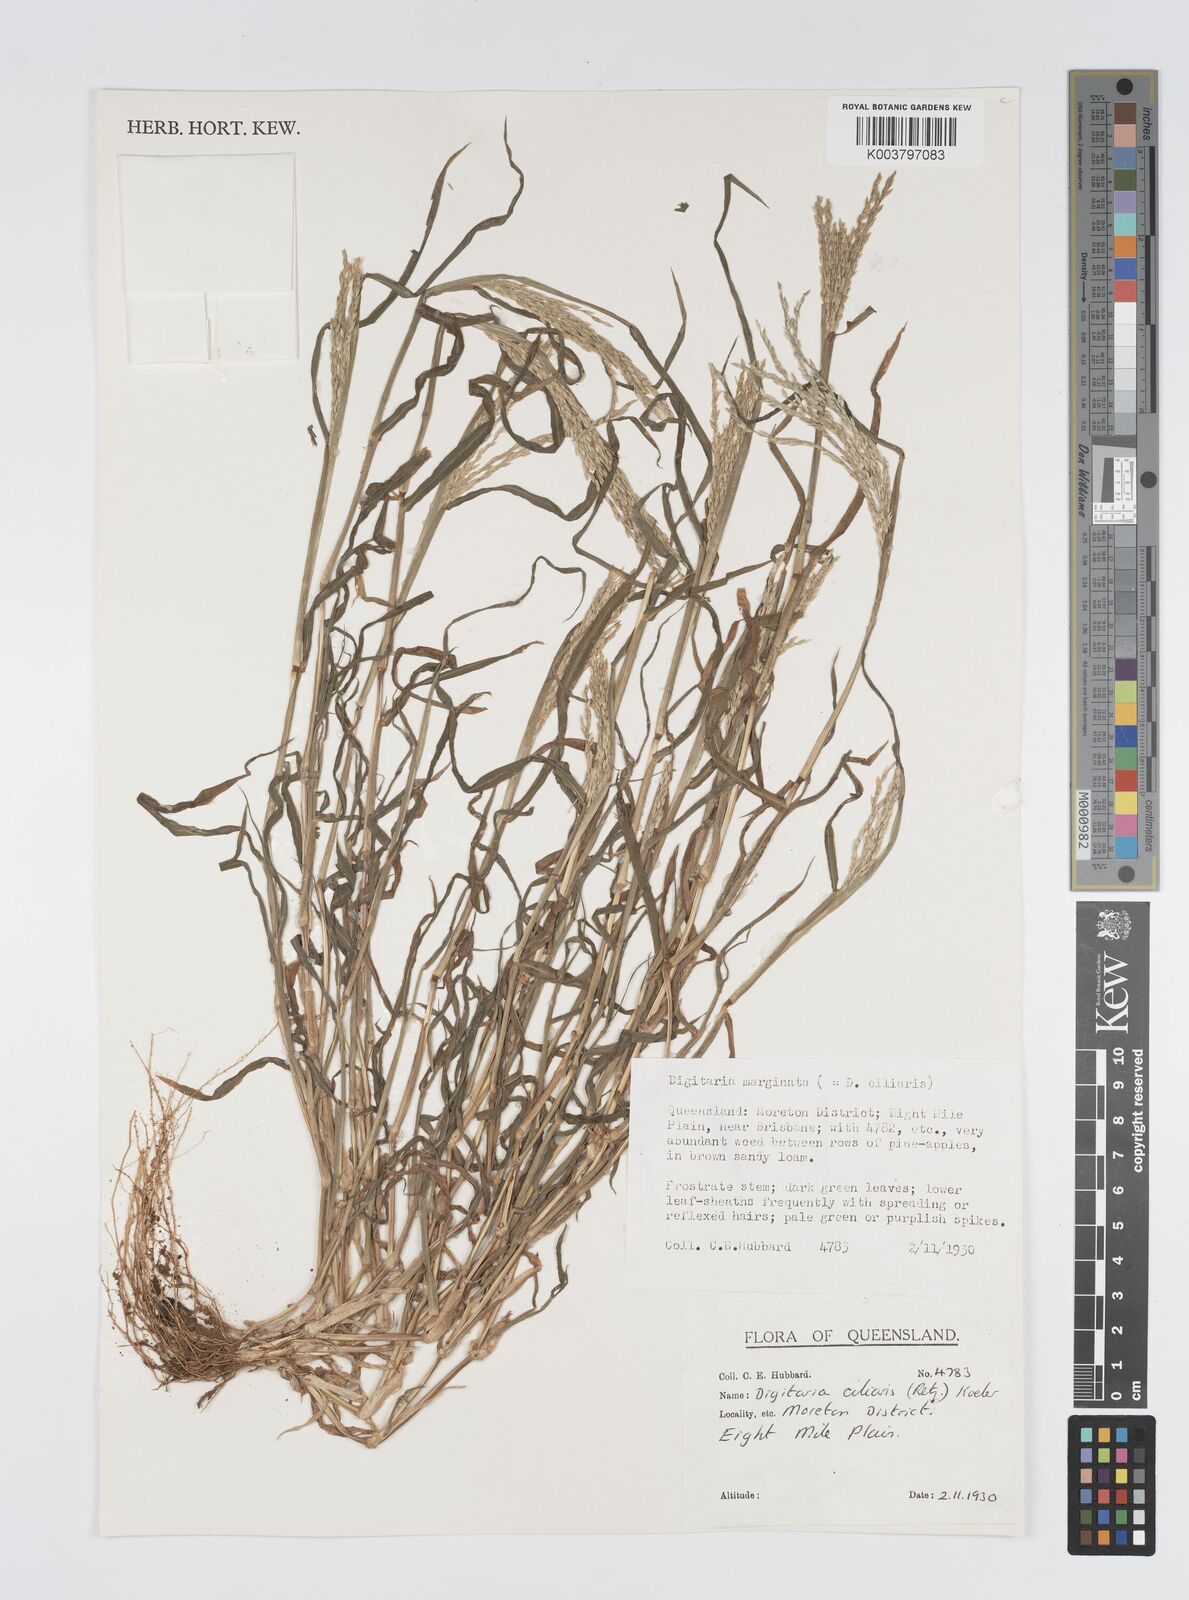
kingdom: Plantae
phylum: Tracheophyta
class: Liliopsida
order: Poales
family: Poaceae
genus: Digitaria
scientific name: Digitaria ciliaris
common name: Tropical finger-grass
